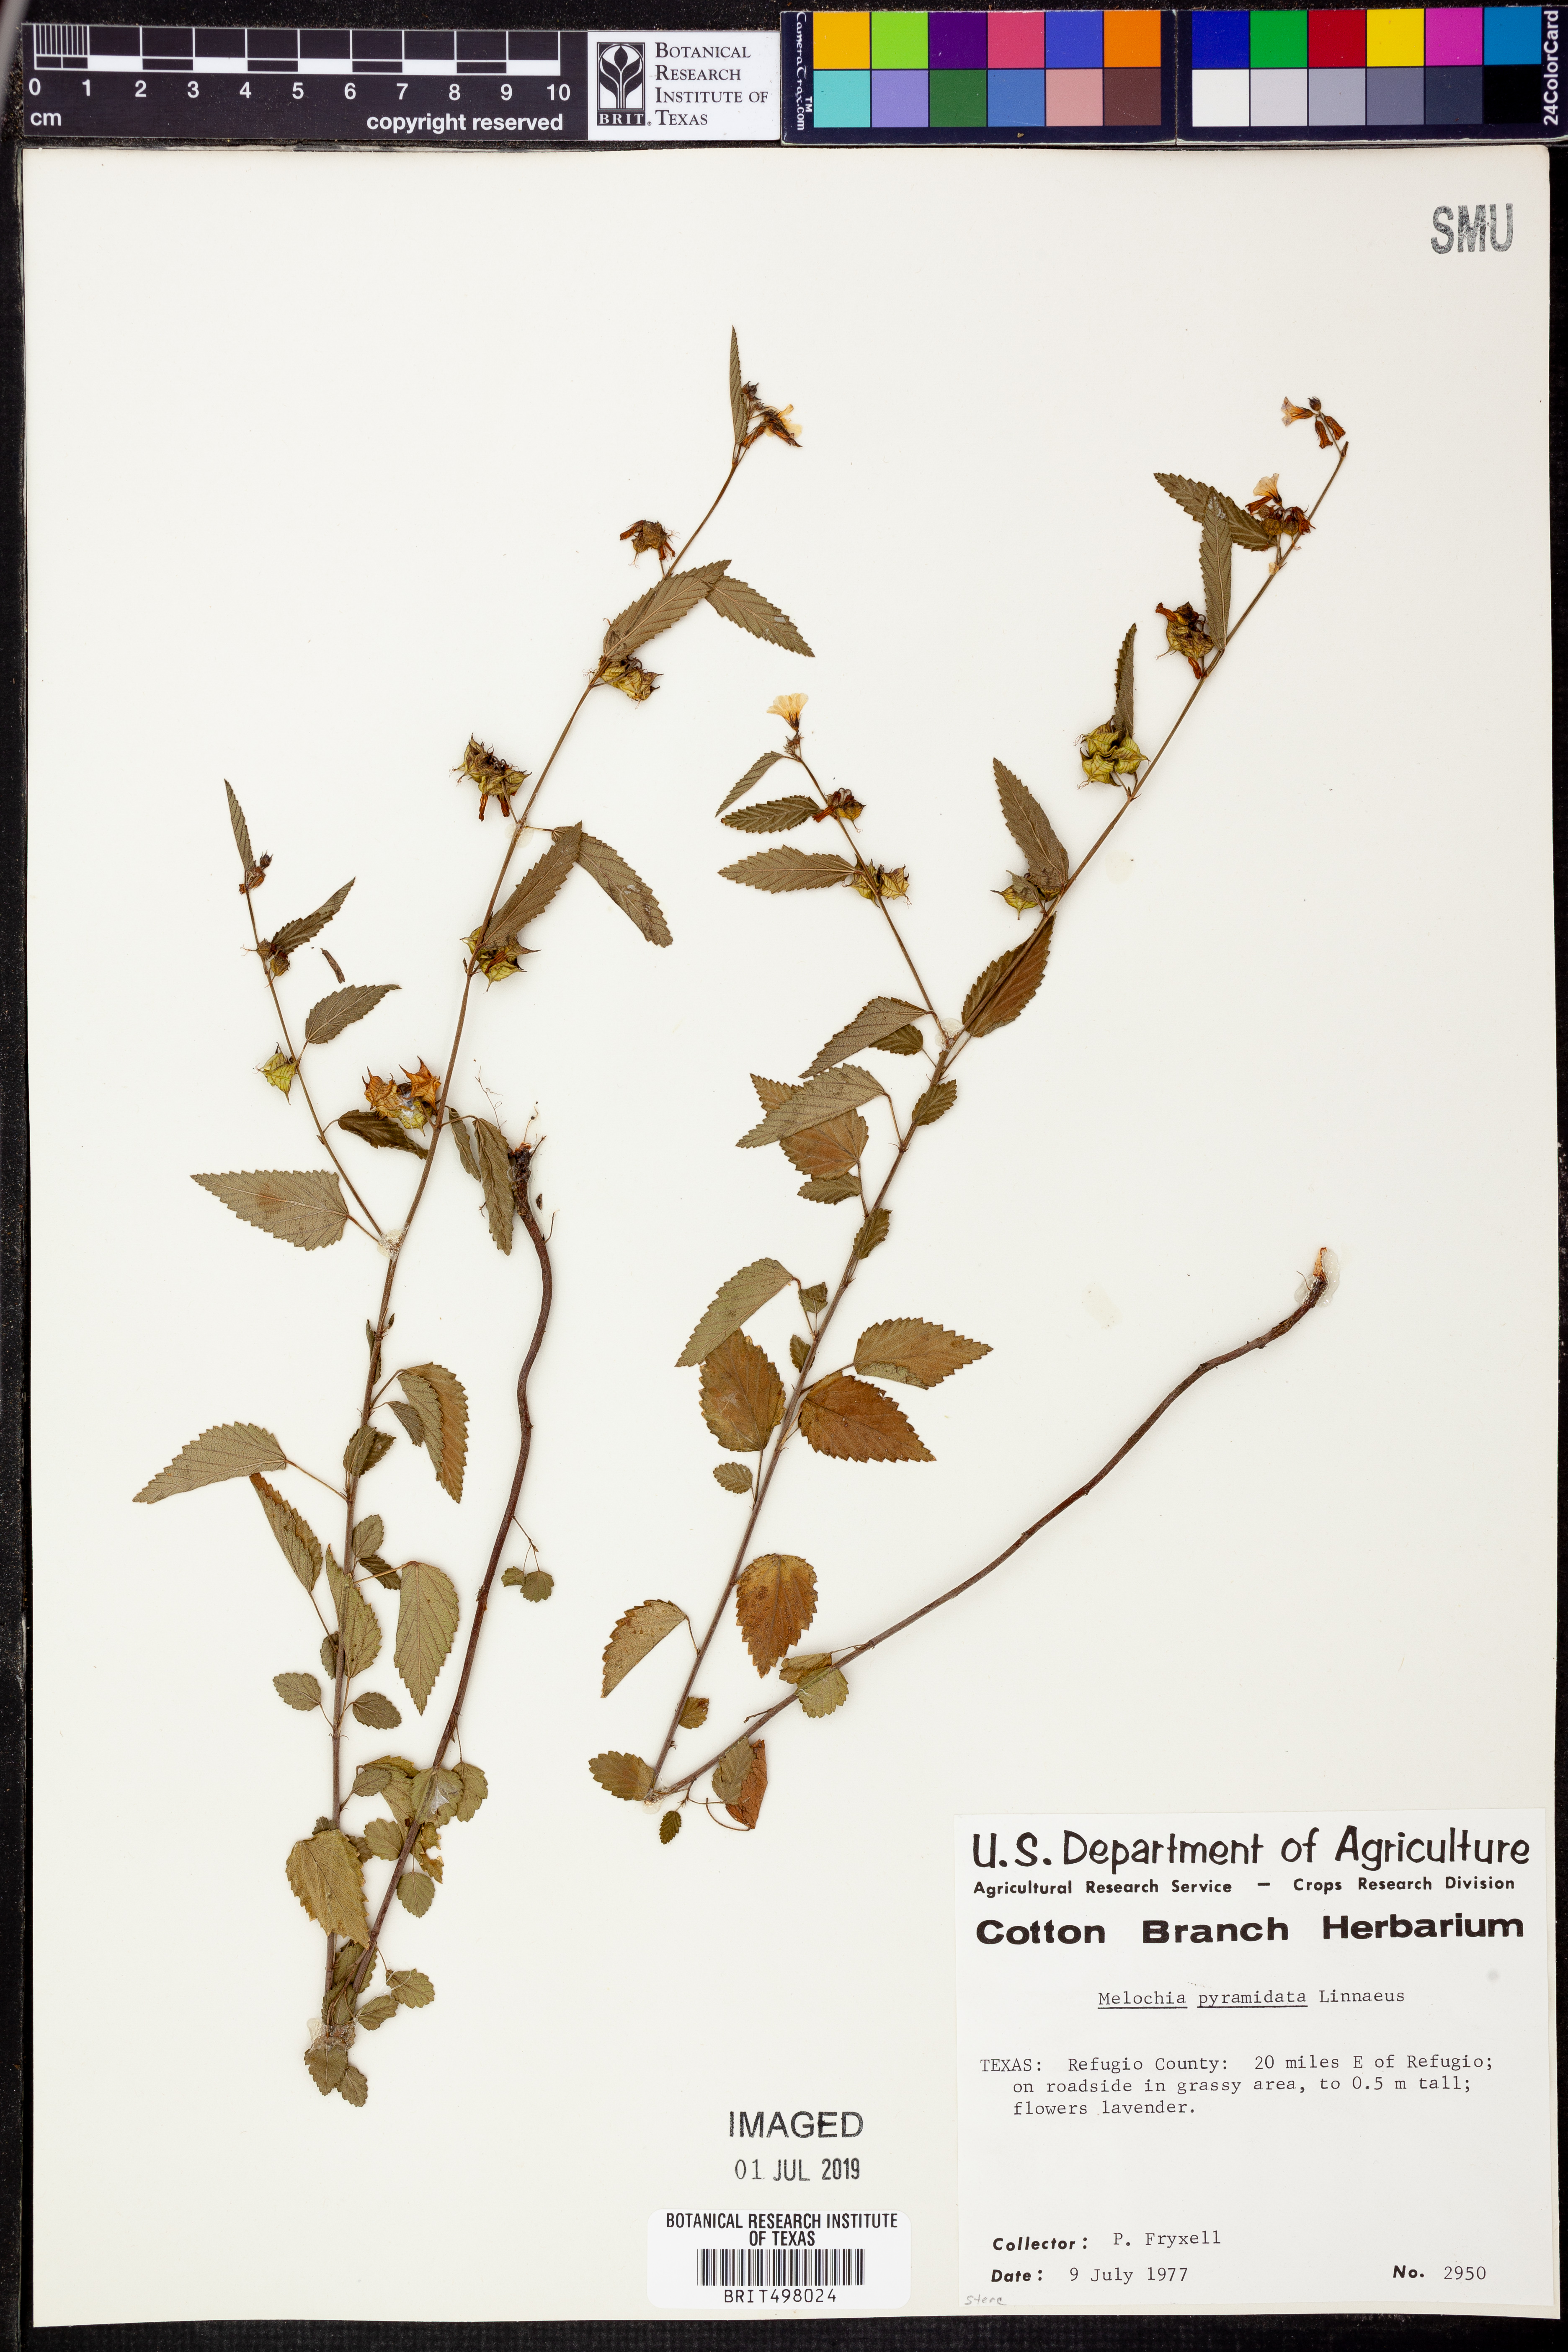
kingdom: Plantae
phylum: Tracheophyta
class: Magnoliopsida
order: Malvales
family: Malvaceae
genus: Melochia
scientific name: Melochia pyramidata
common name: Pyramidflower
